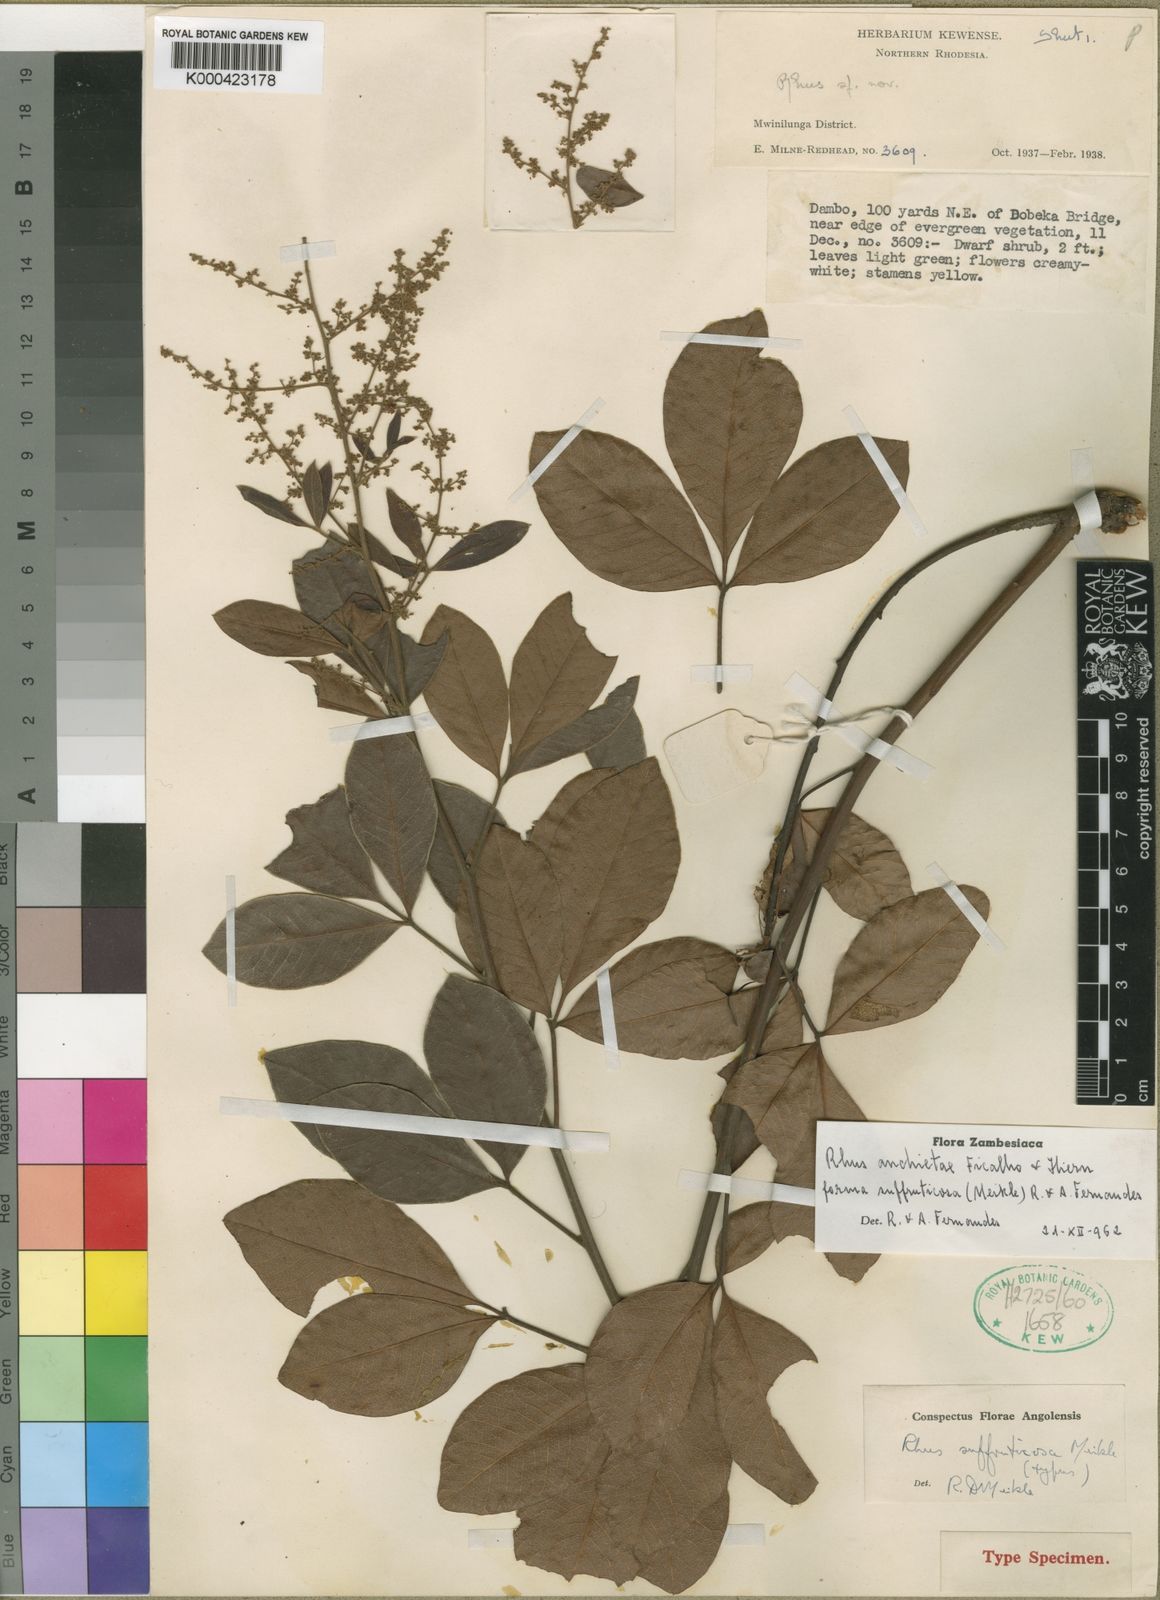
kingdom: Plantae
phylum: Tracheophyta
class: Magnoliopsida
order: Sapindales
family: Anacardiaceae
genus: Searsia
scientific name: Searsia anchietae
